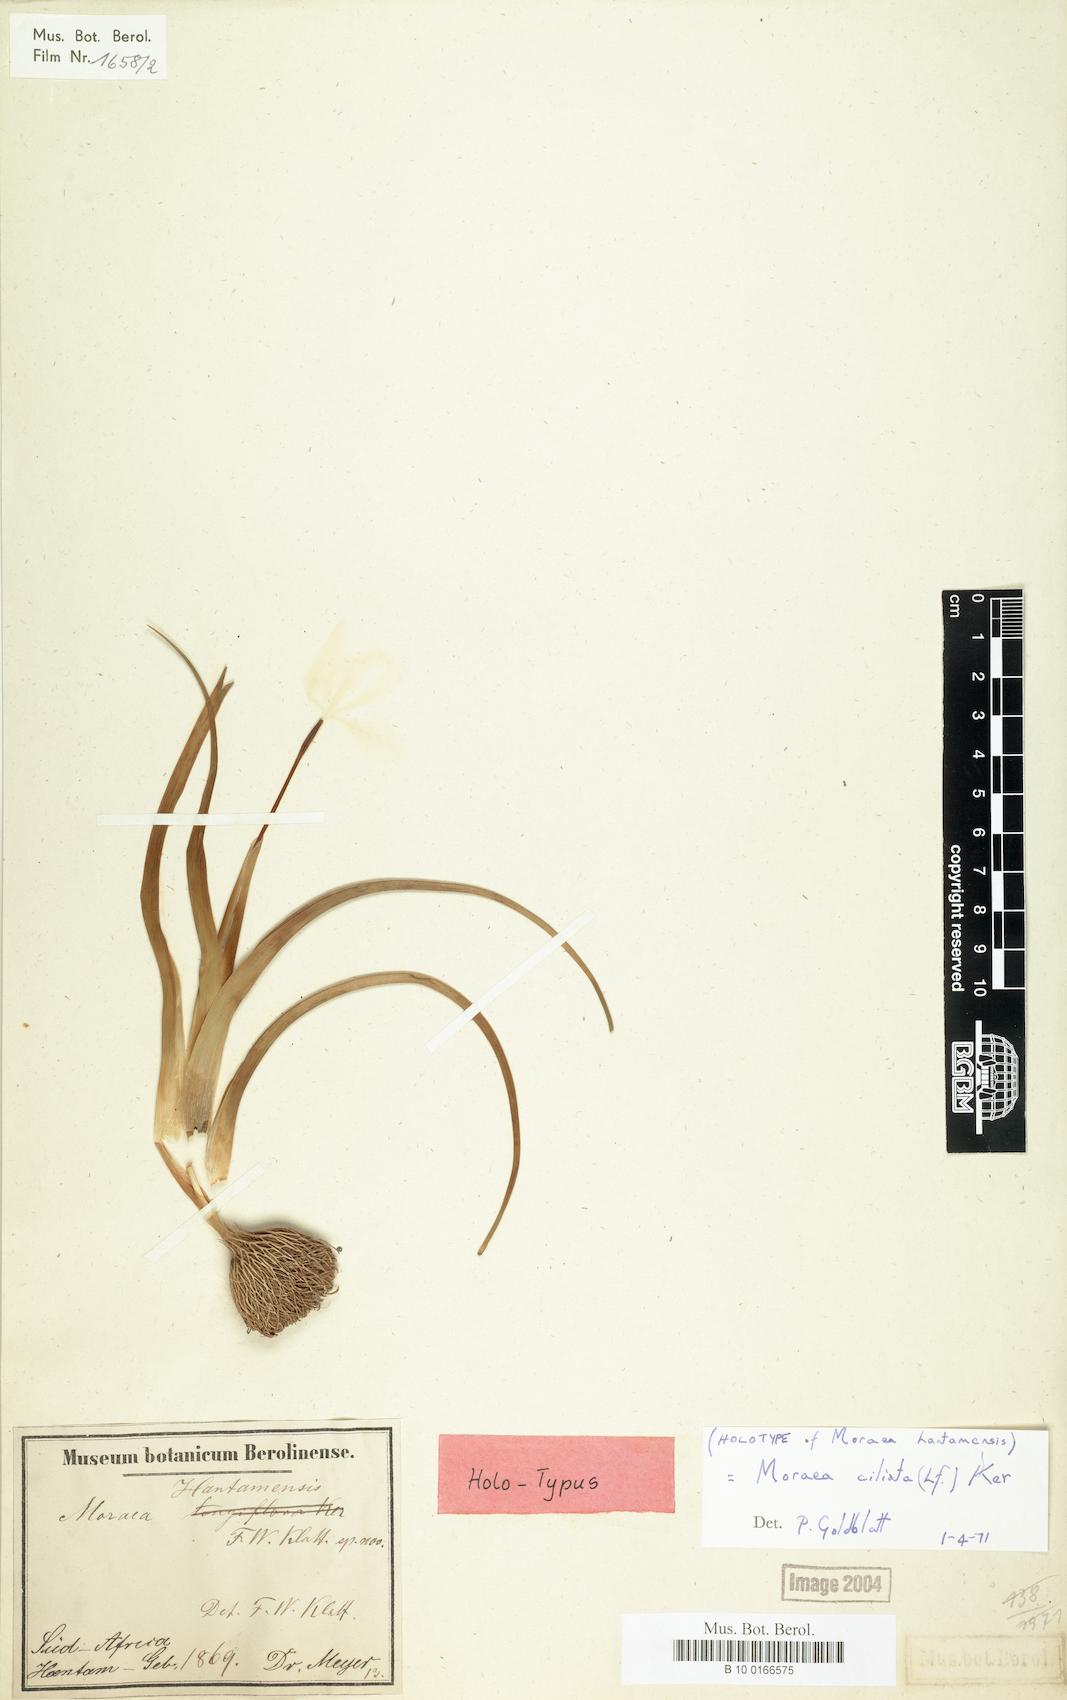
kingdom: Plantae
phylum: Tracheophyta
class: Liliopsida
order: Asparagales
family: Iridaceae
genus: Moraea
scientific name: Moraea ciliata
